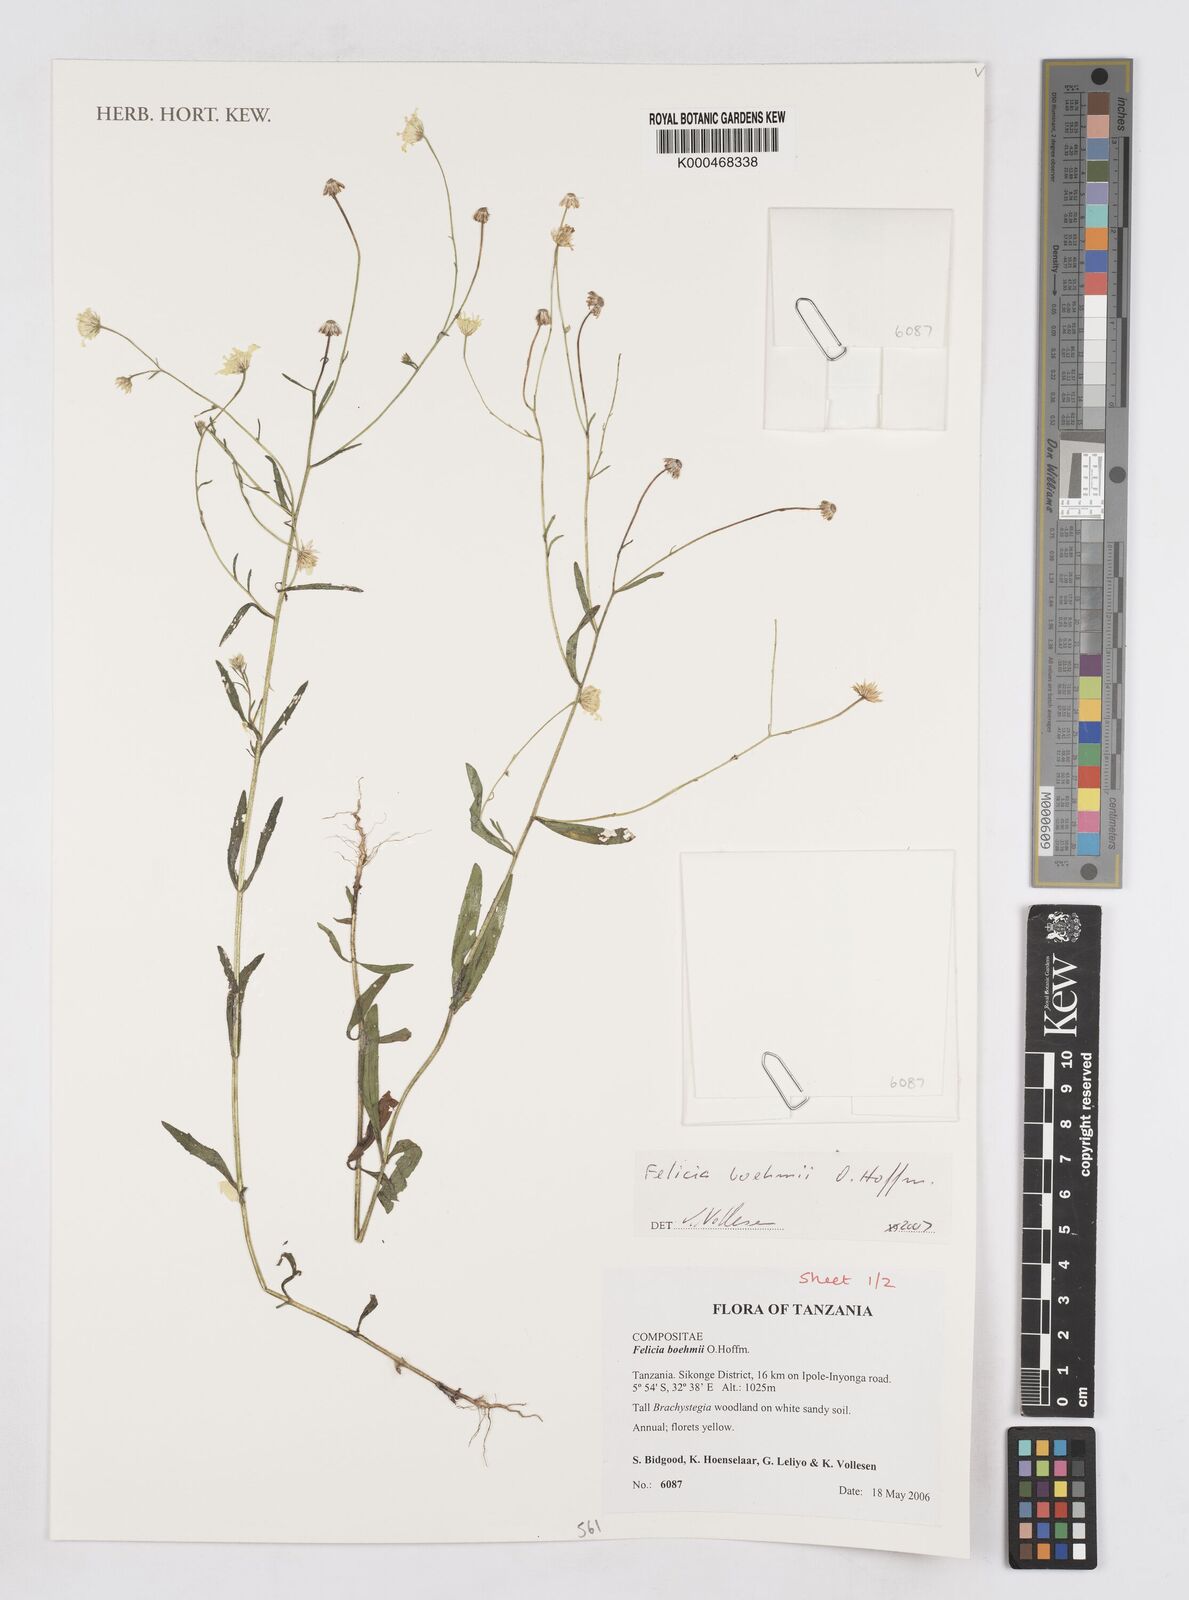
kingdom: Plantae
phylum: Tracheophyta
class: Magnoliopsida
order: Asterales
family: Asteraceae
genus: Felicia
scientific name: Felicia boehmii
